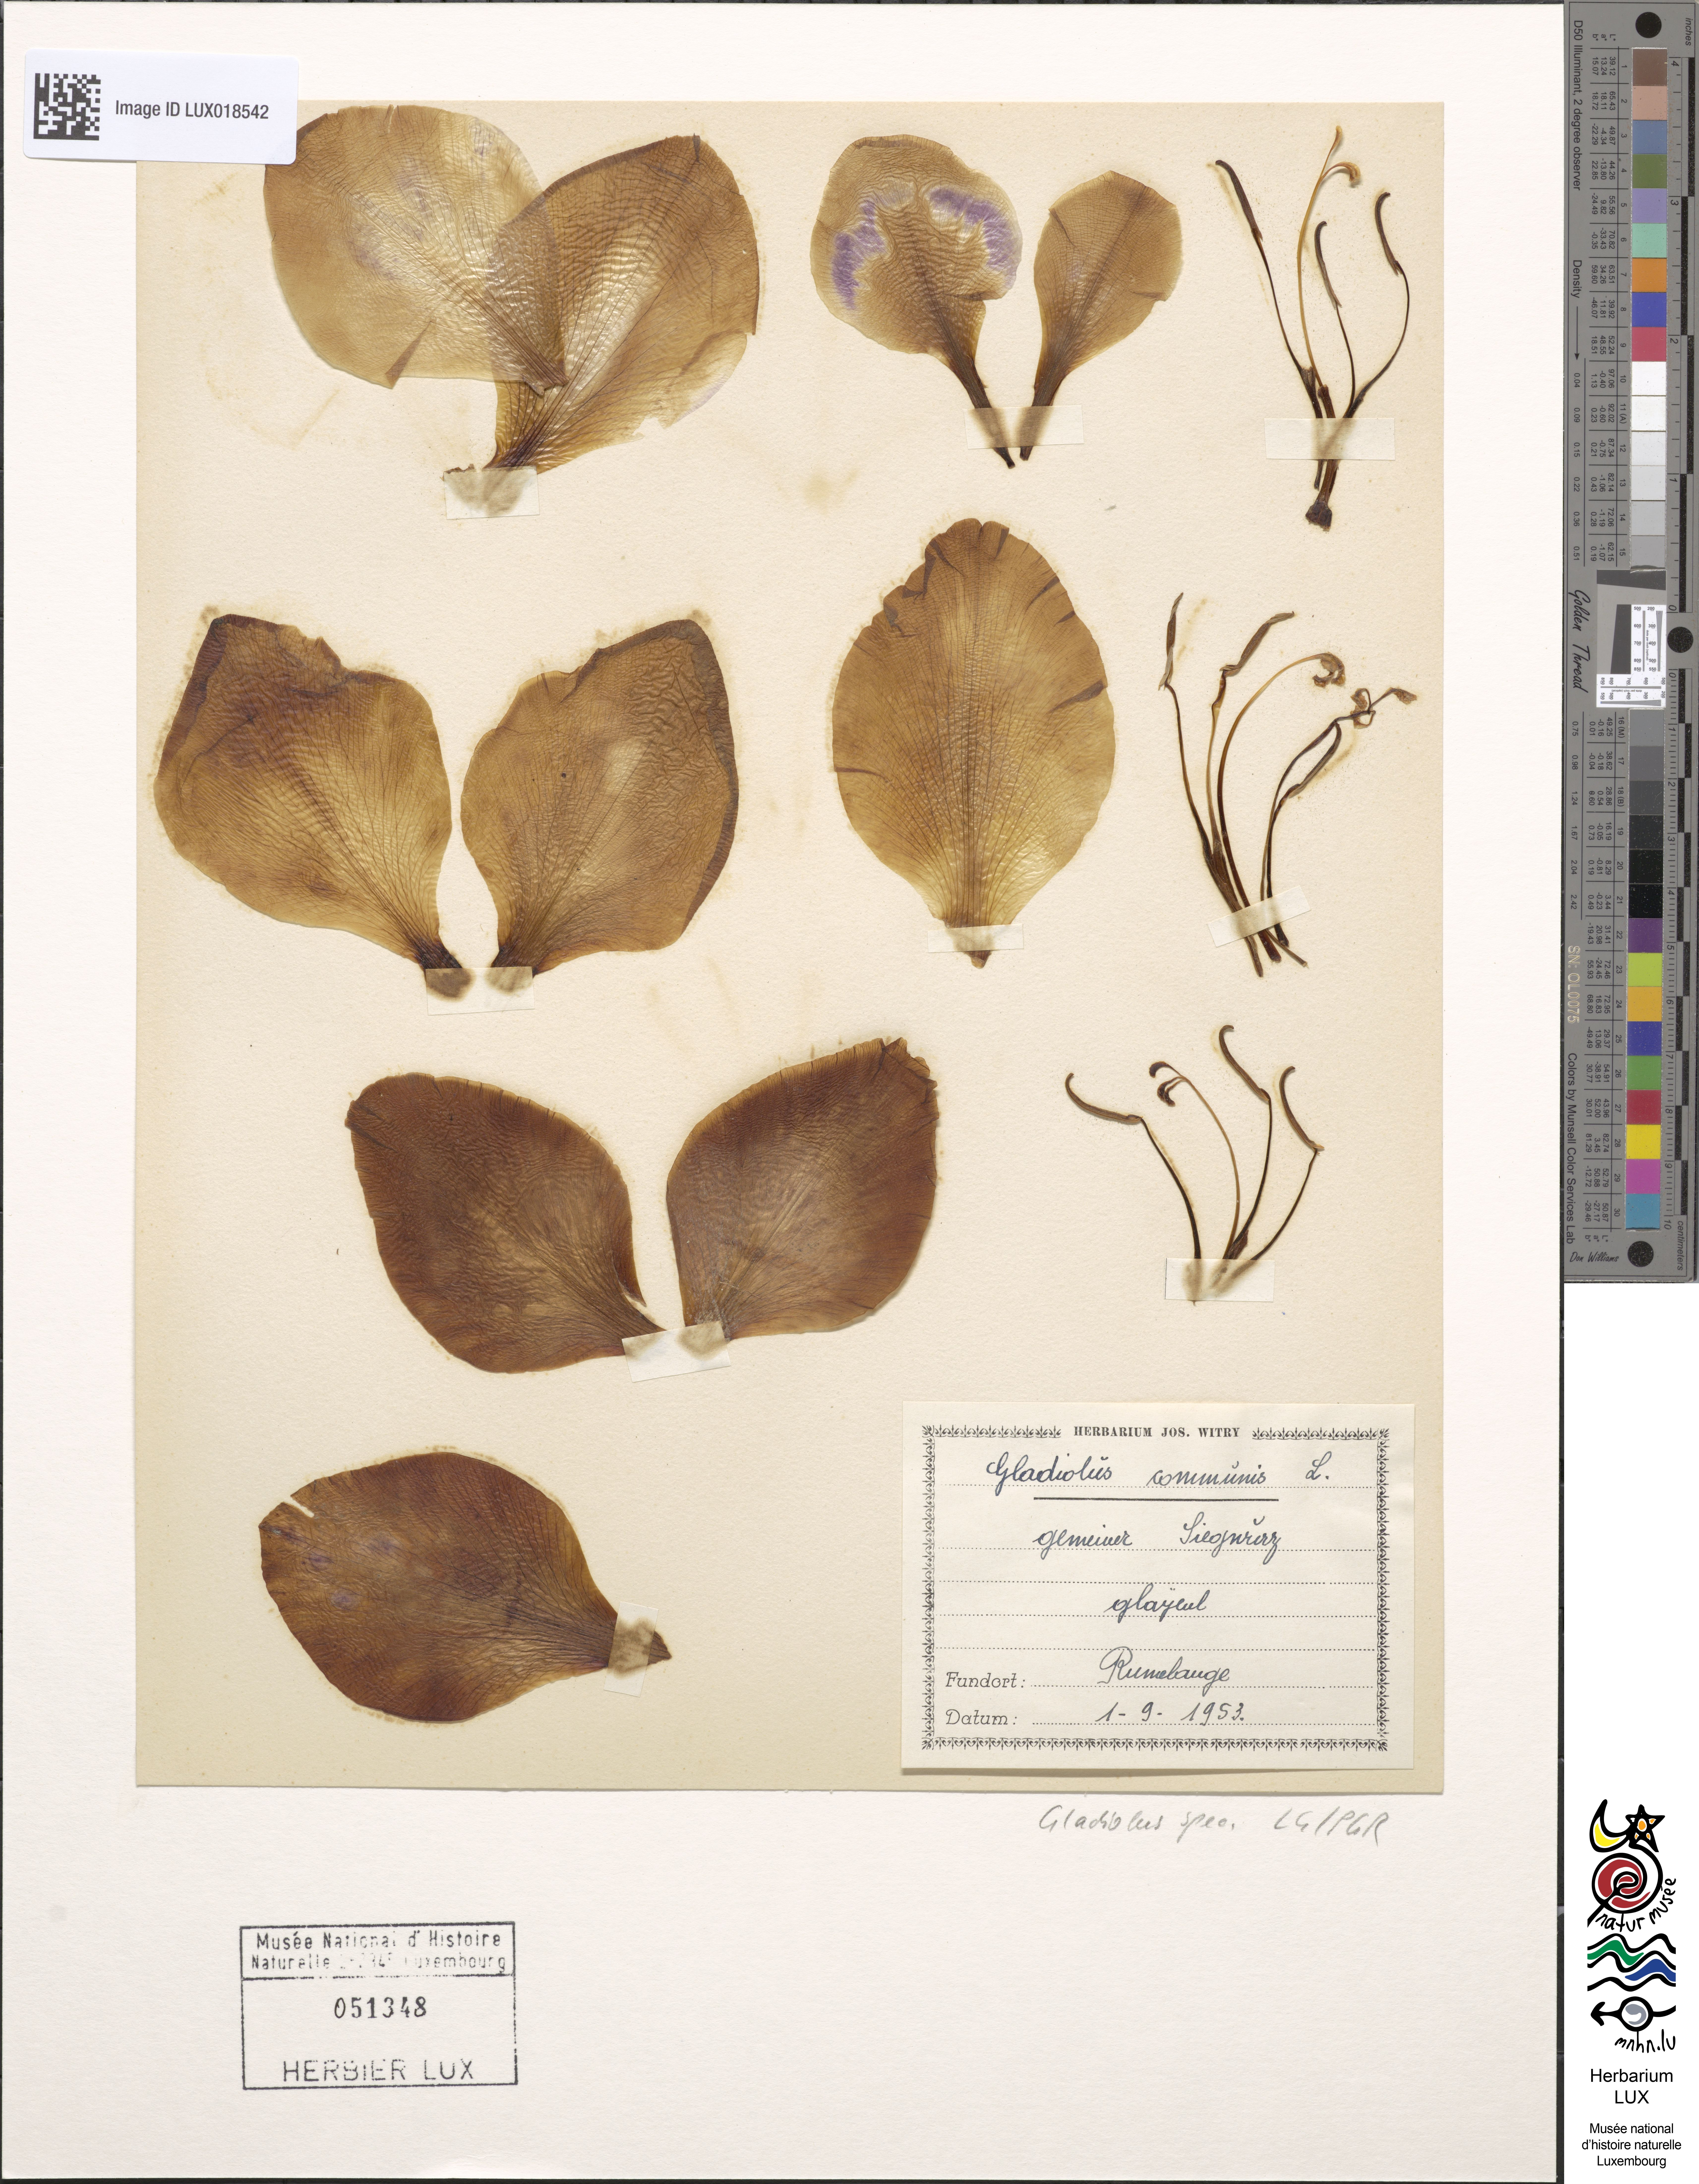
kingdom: Plantae
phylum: Tracheophyta
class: Liliopsida
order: Asparagales
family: Iridaceae
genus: Gladiolus
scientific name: Gladiolus
